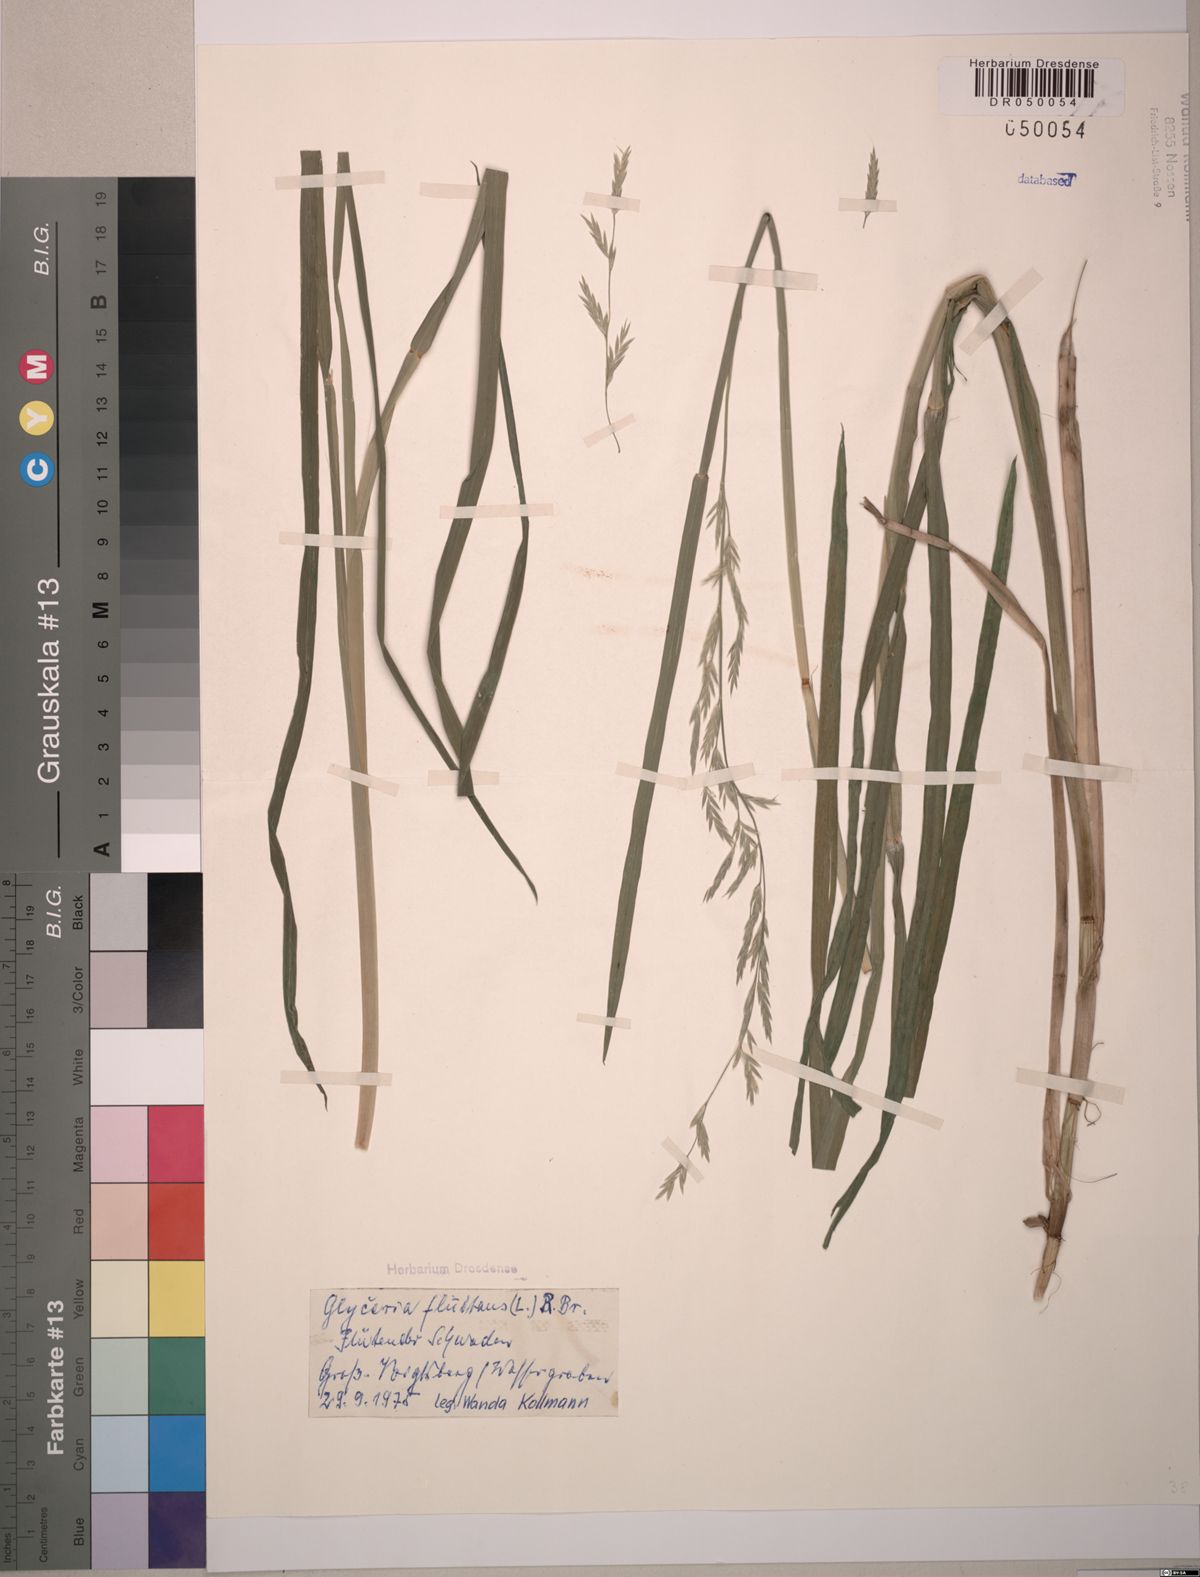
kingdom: Plantae
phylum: Tracheophyta
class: Liliopsida
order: Poales
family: Poaceae
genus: Glyceria
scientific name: Glyceria fluitans
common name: Floating sweet-grass
